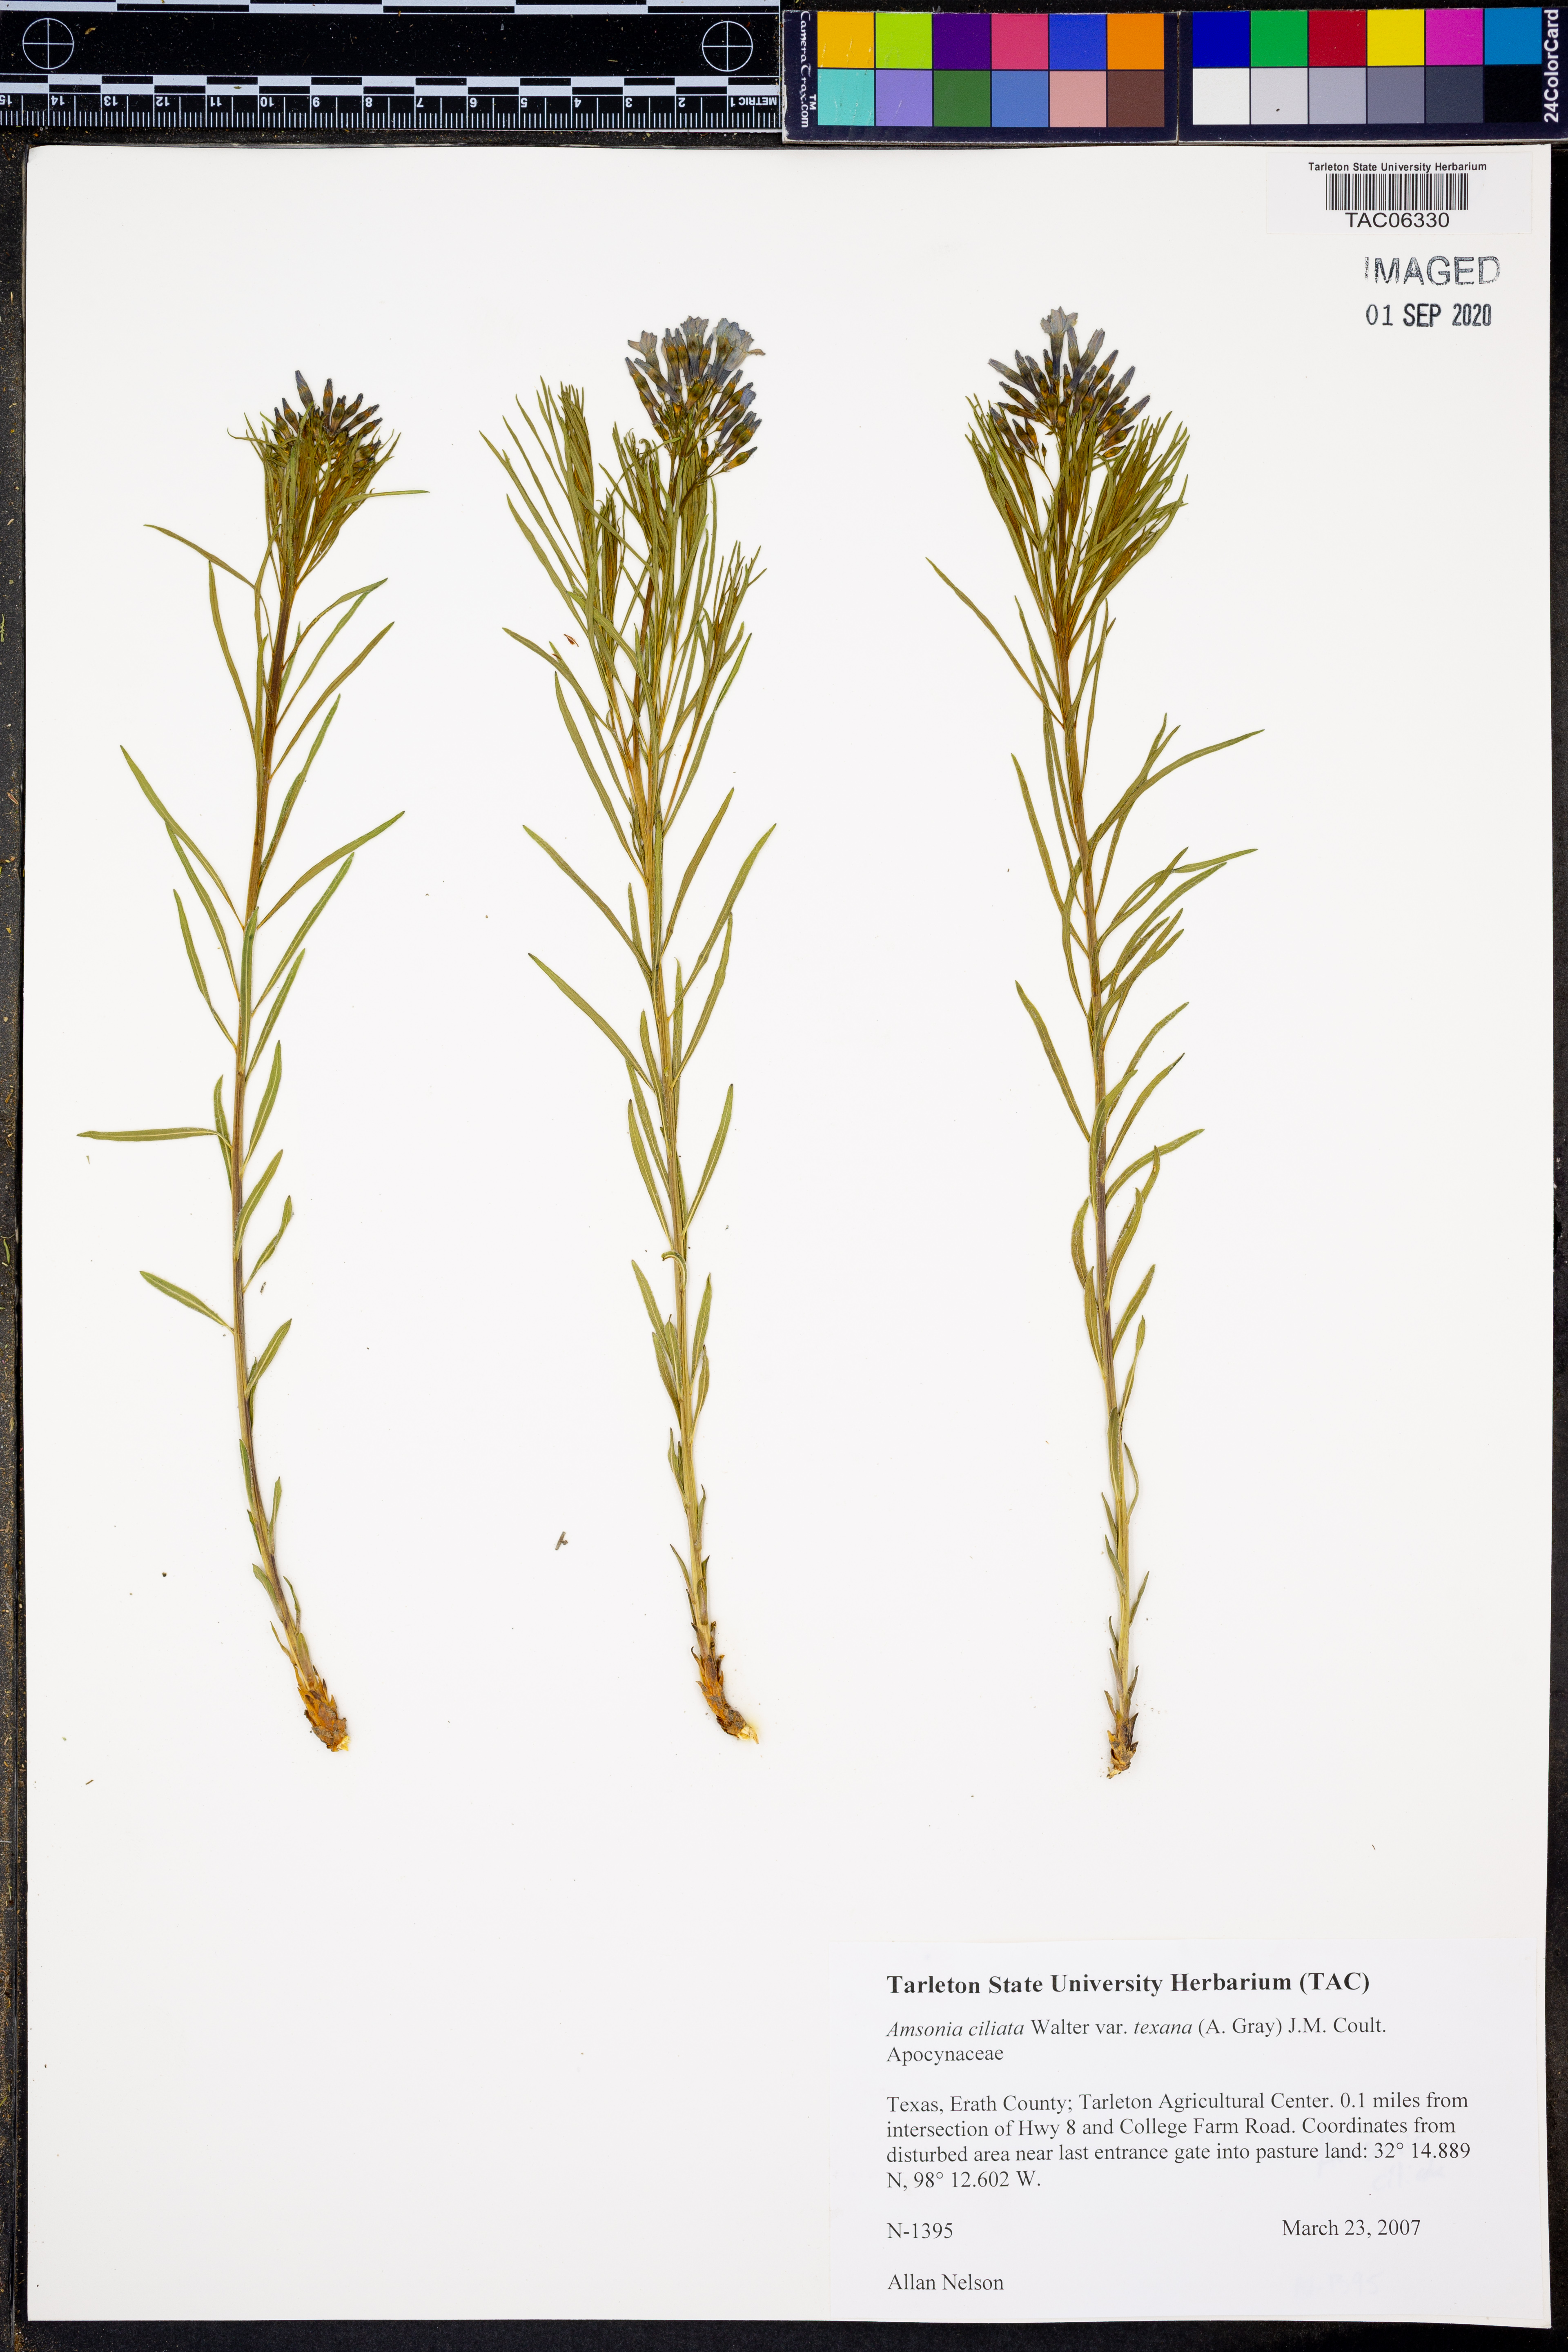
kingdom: Plantae
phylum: Tracheophyta
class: Magnoliopsida
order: Gentianales
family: Apocynaceae
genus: Amsonia
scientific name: Amsonia ciliata
